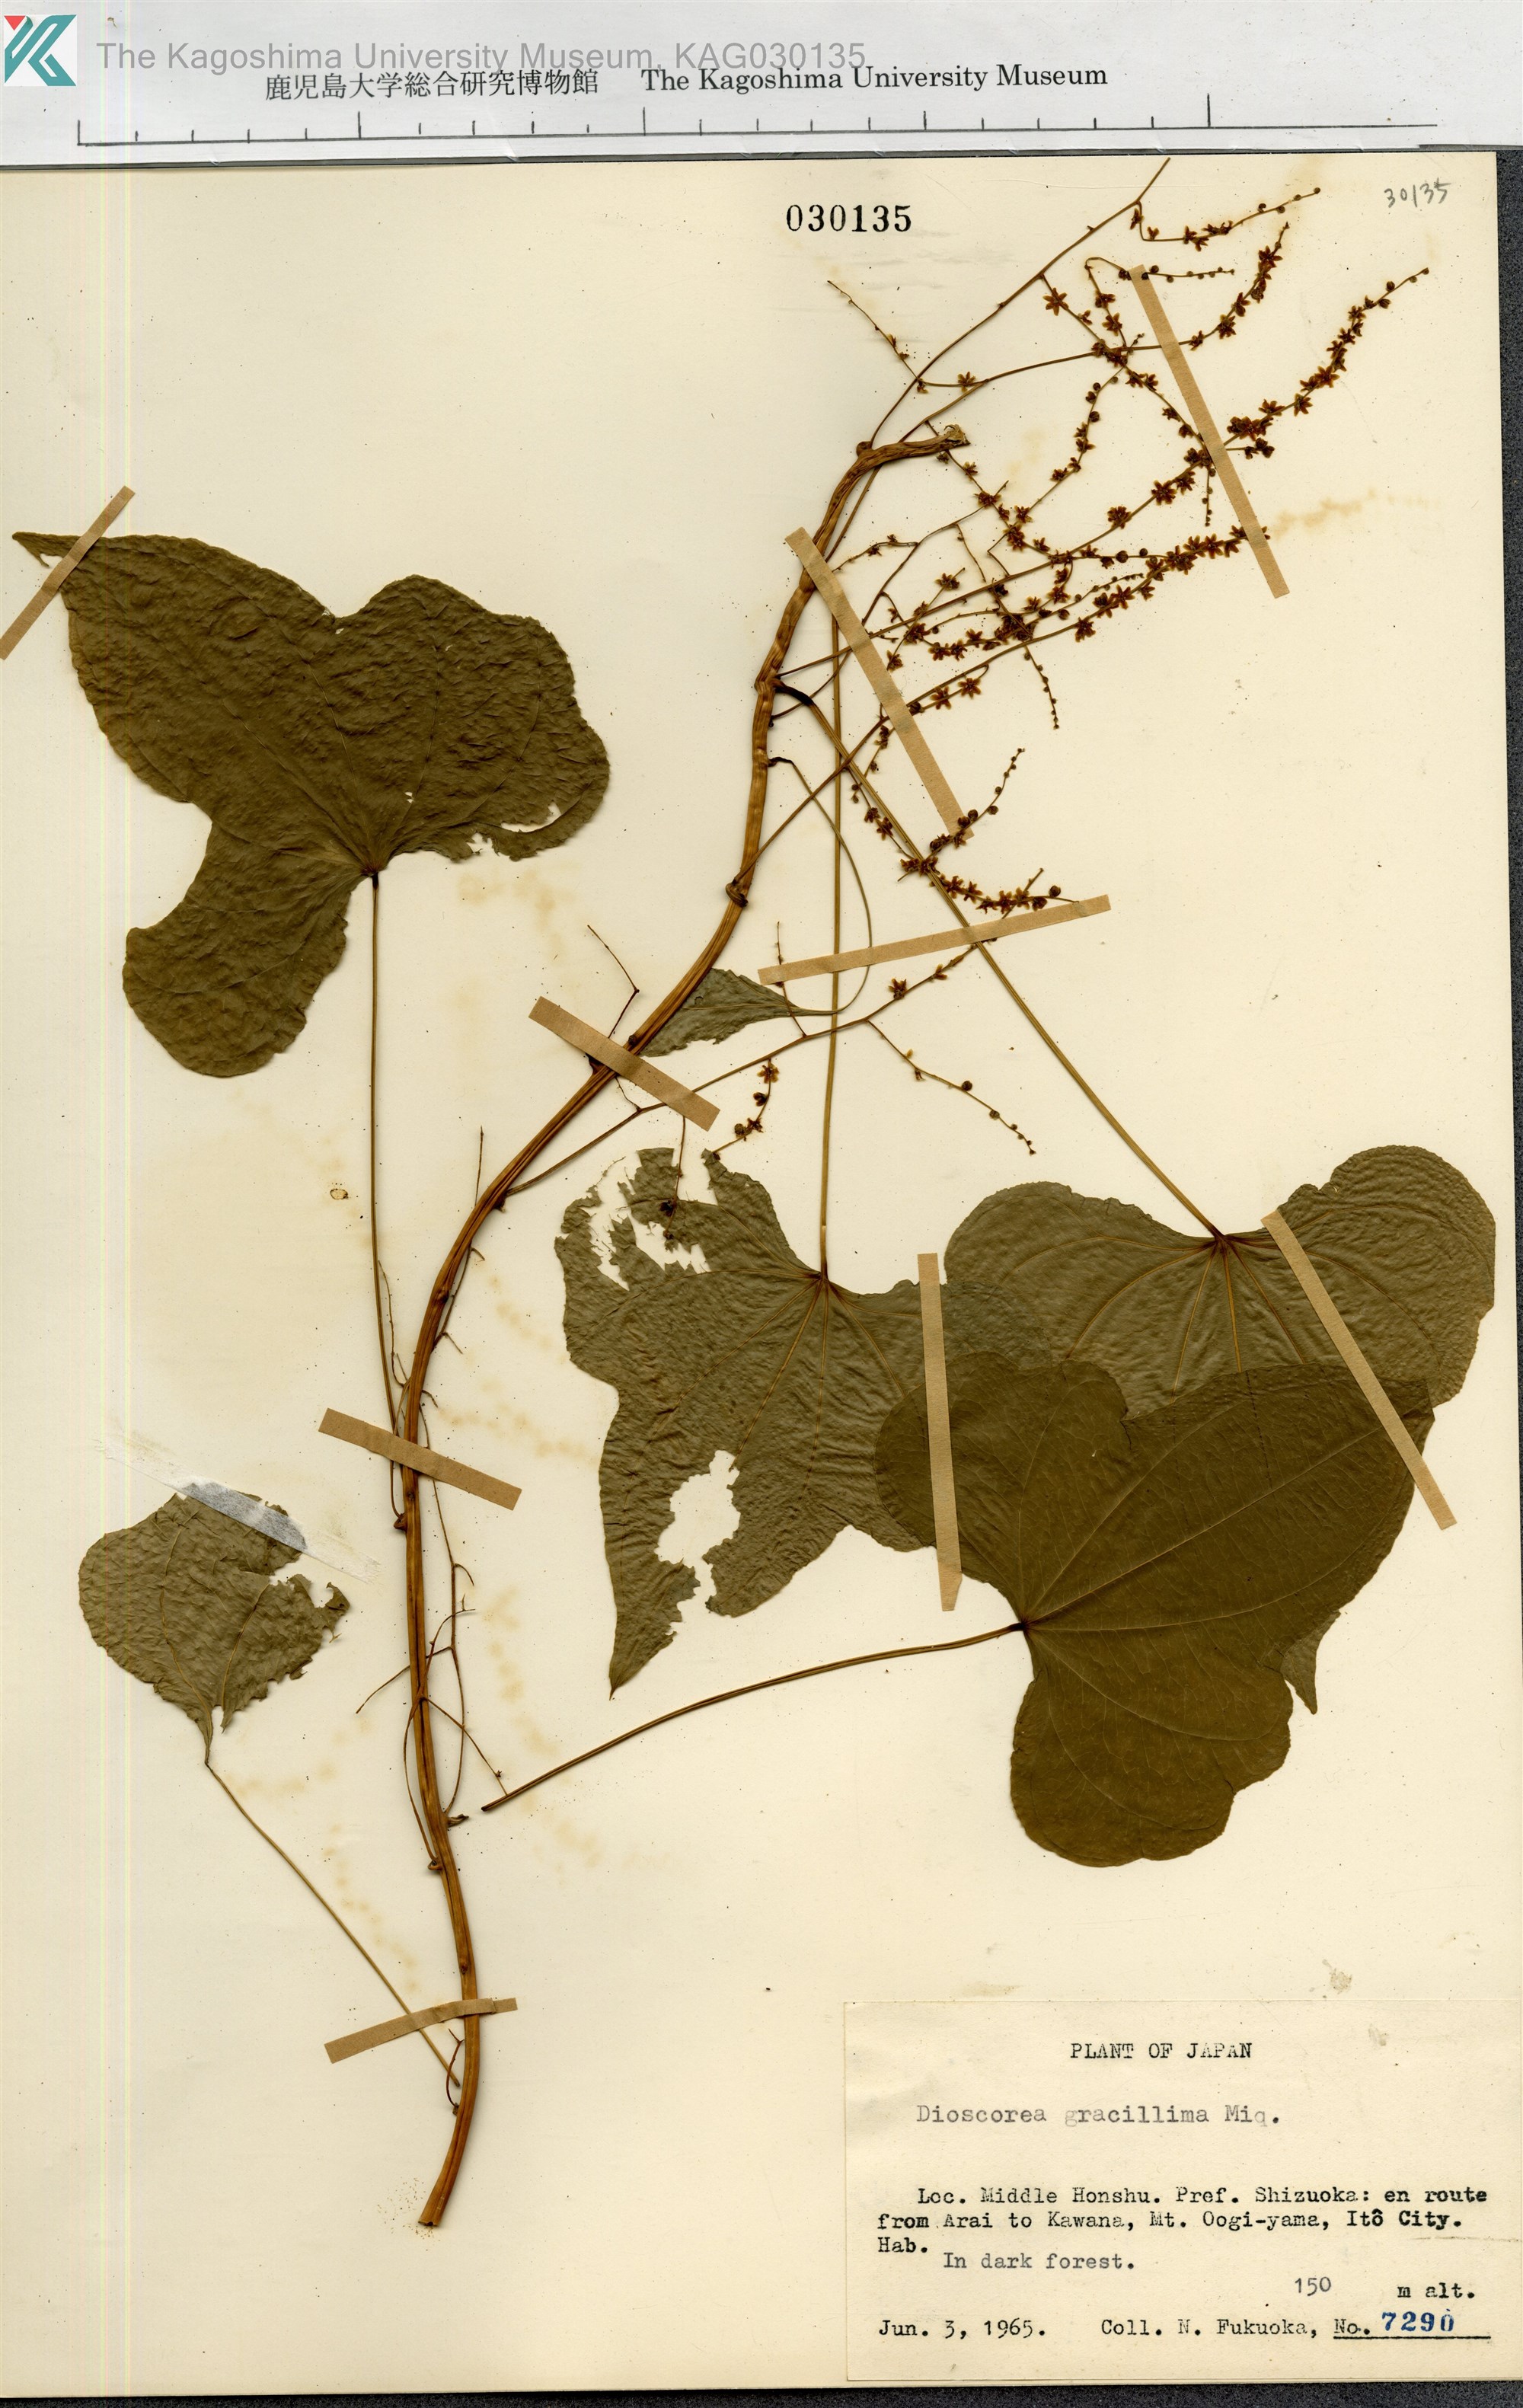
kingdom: Plantae
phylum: Tracheophyta
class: Liliopsida
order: Dioscoreales
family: Dioscoreaceae
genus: Dioscorea
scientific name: Dioscorea gracillima
